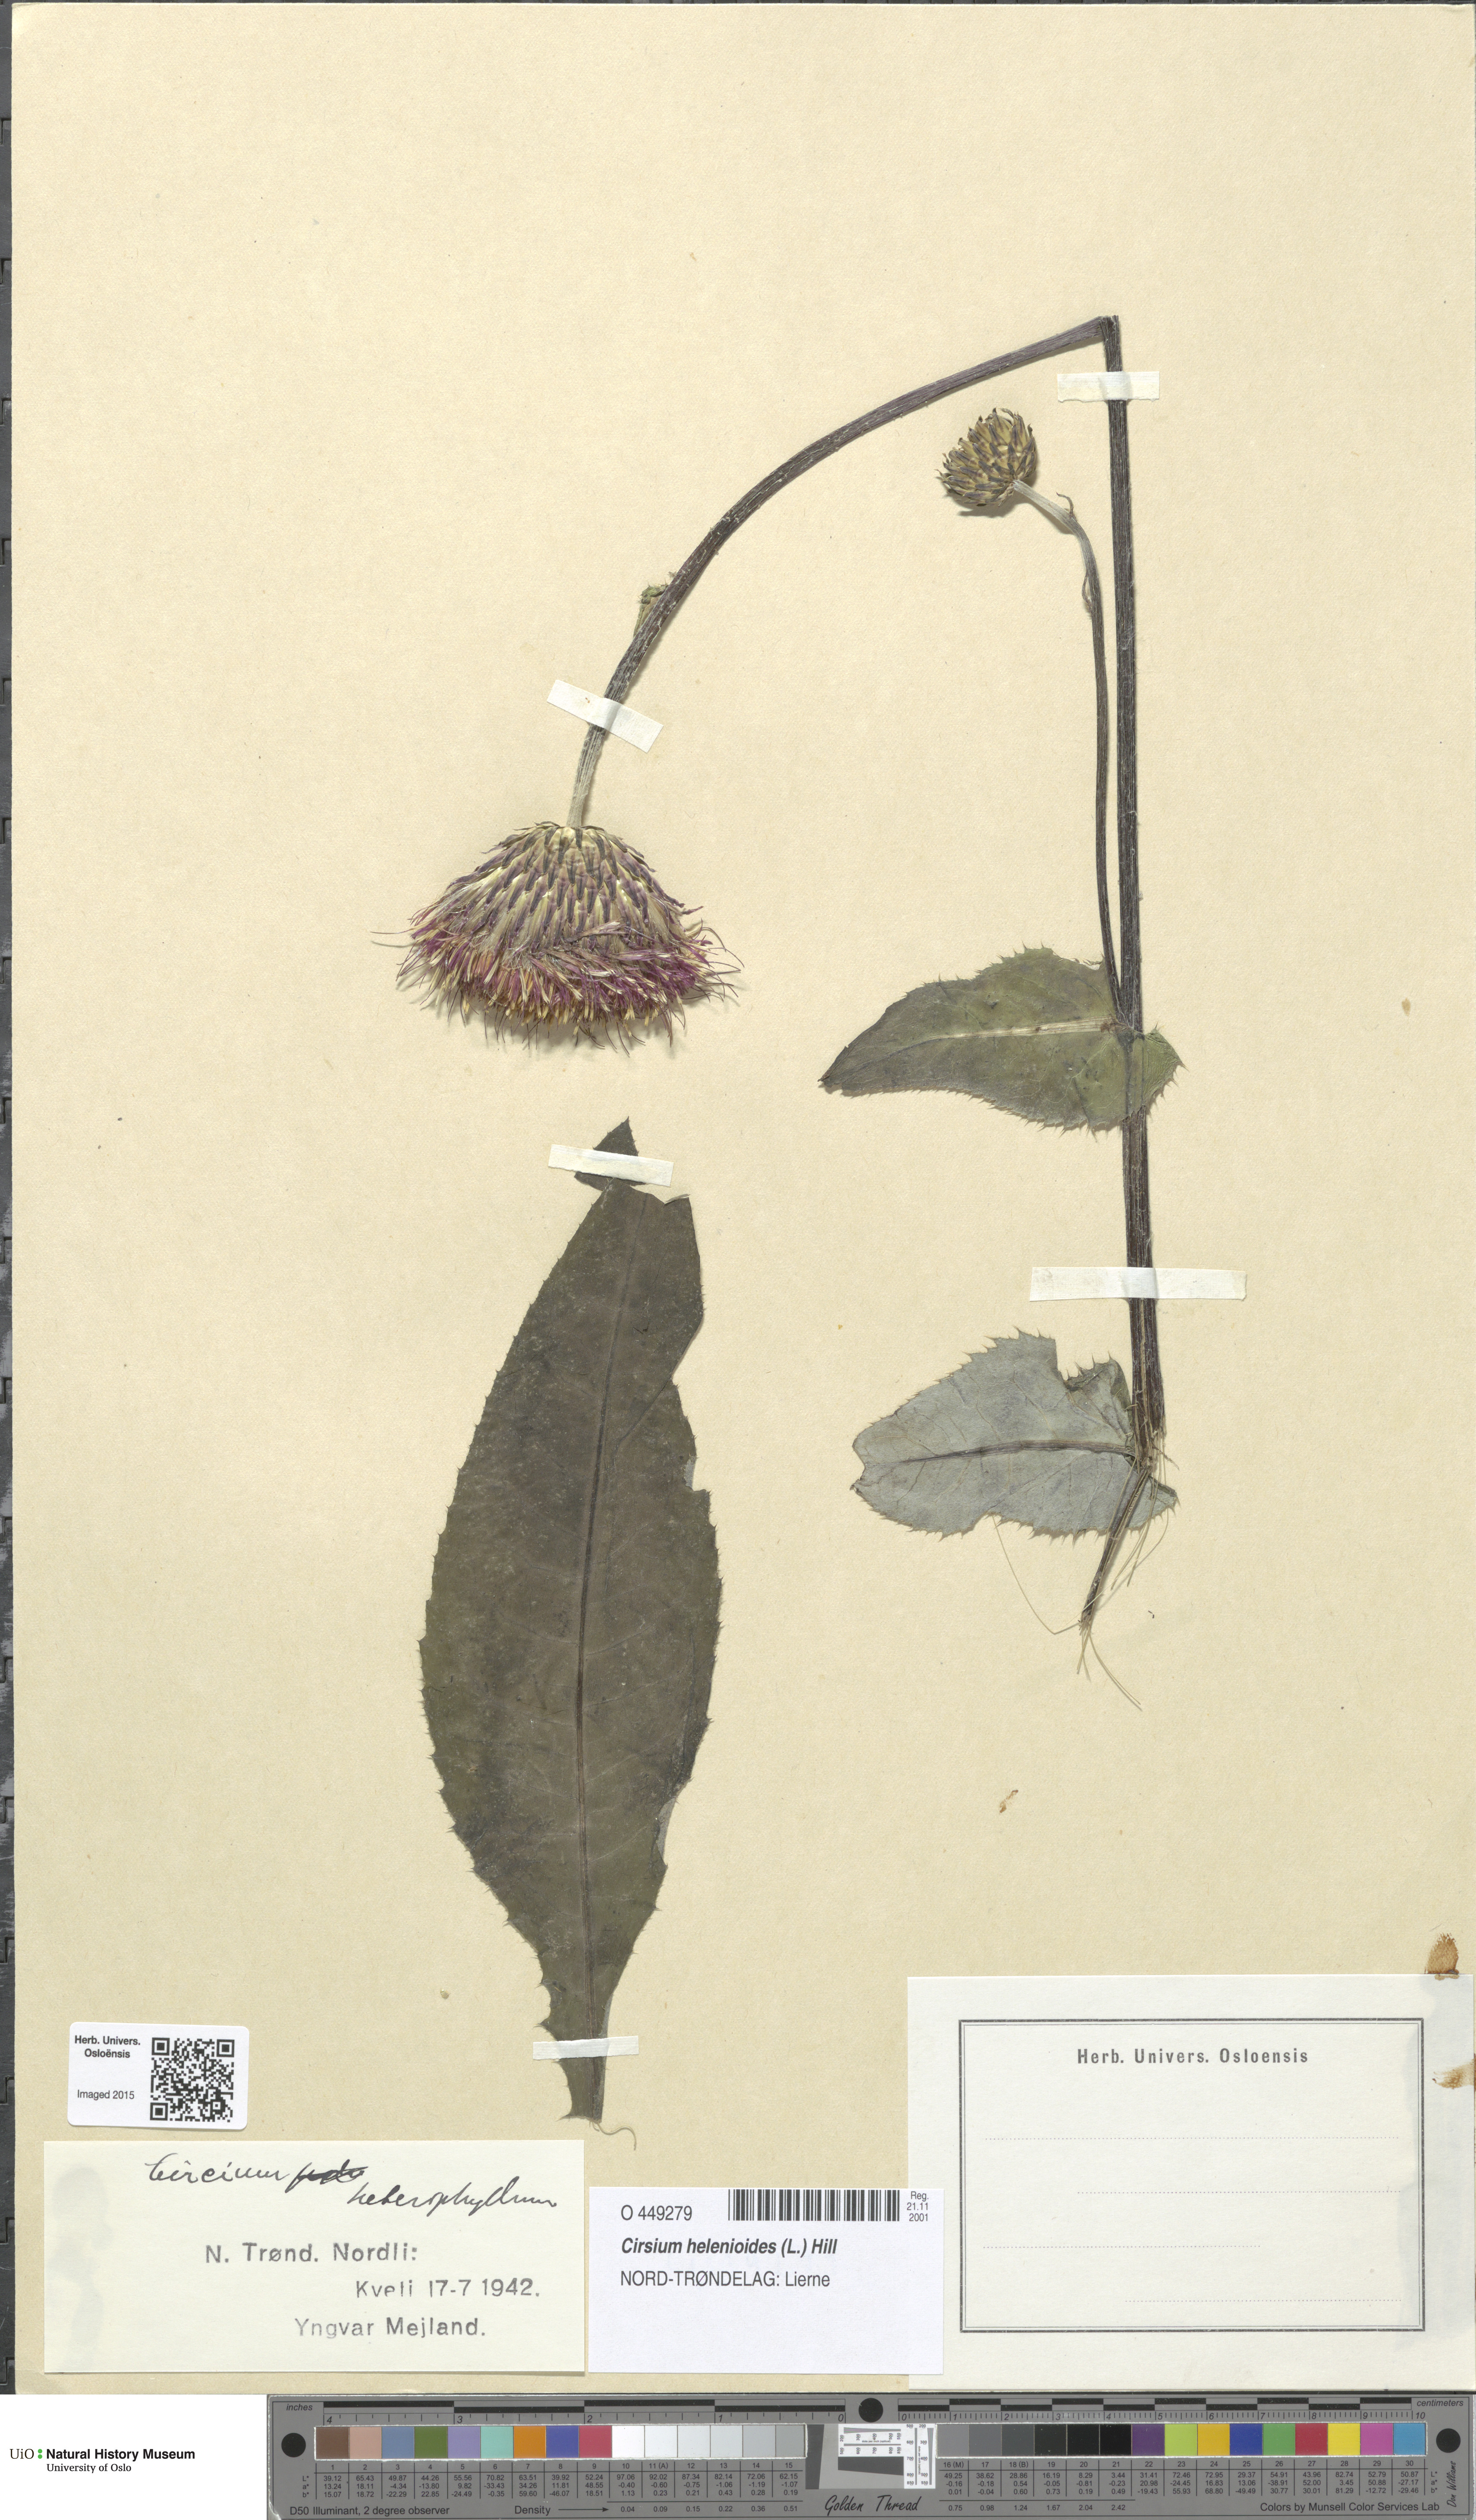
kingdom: Plantae
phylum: Tracheophyta
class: Magnoliopsida
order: Asterales
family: Asteraceae
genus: Cirsium
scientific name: Cirsium heterophyllum
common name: Melancholy thistle
